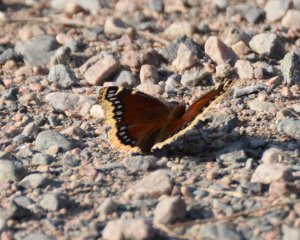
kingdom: Animalia
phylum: Arthropoda
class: Insecta
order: Lepidoptera
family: Nymphalidae
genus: Nymphalis
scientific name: Nymphalis antiopa
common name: Mourning Cloak
